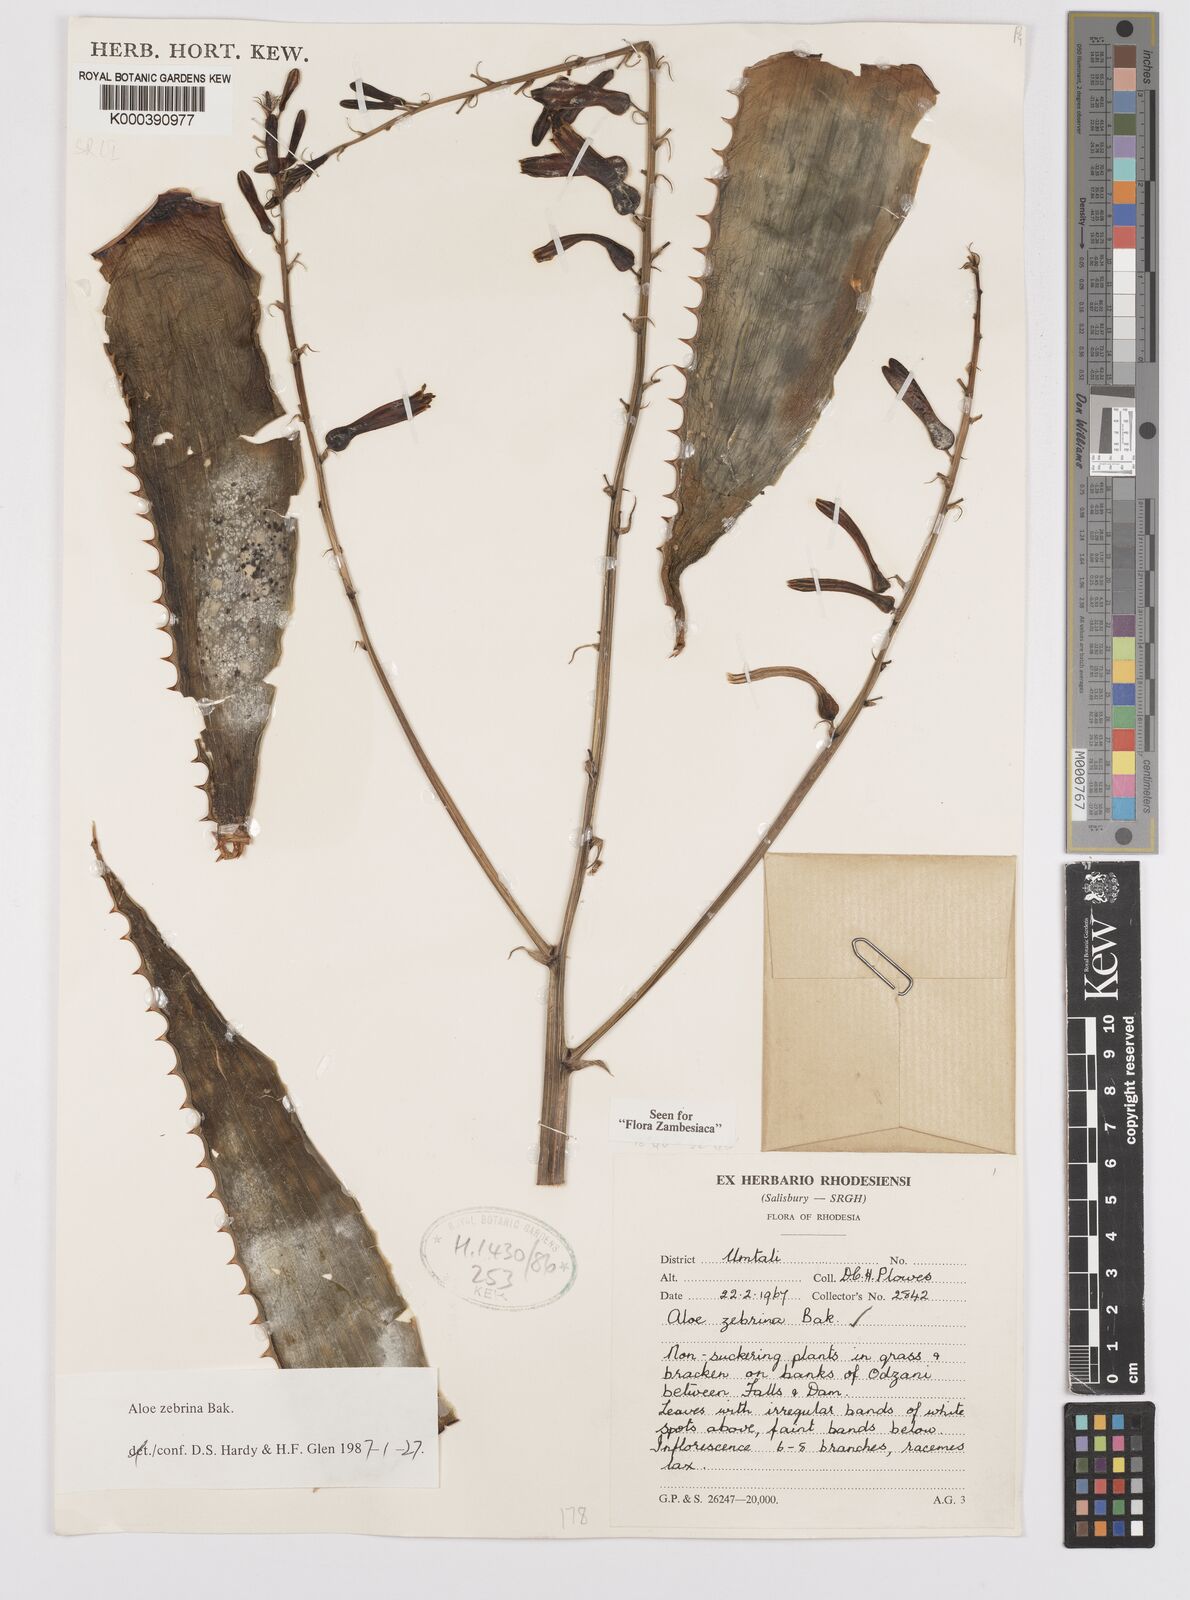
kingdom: Plantae
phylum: Tracheophyta
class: Liliopsida
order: Asparagales
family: Asphodelaceae
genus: Aloe
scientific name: Aloe zebrina
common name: Zebra-leaf aloe
